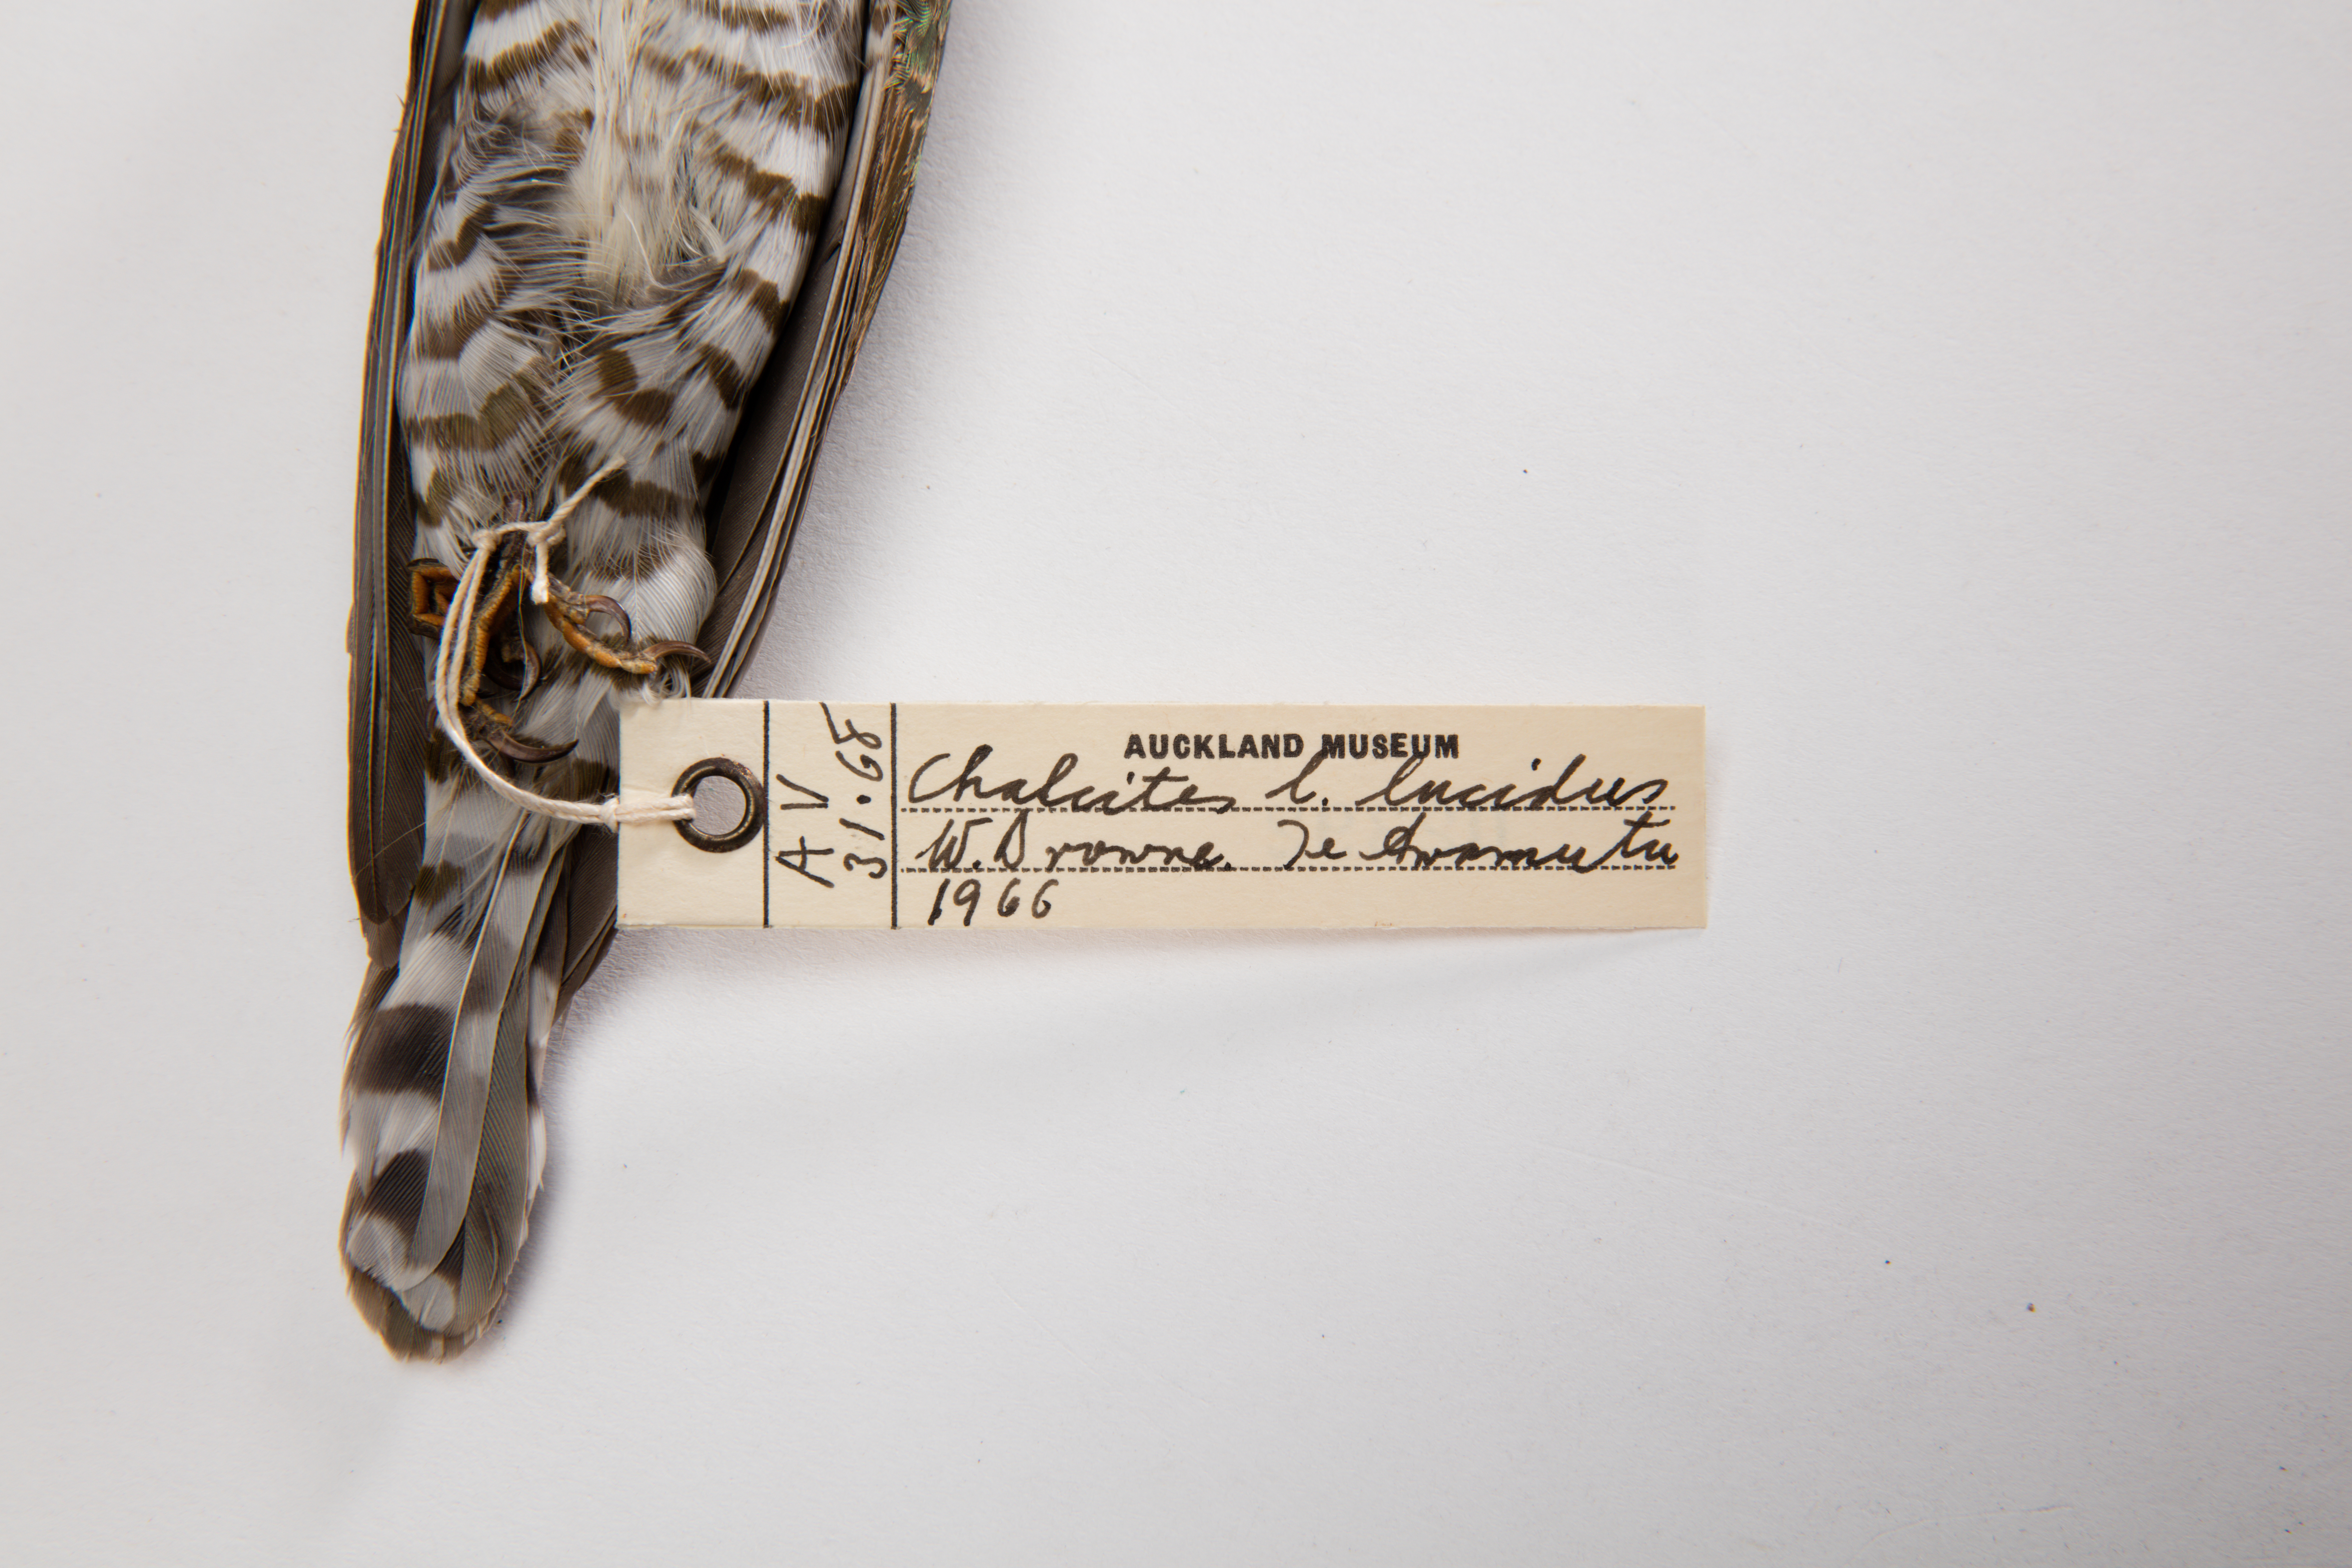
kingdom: Animalia
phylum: Chordata
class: Aves
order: Cuculiformes
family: Cuculidae
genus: Chrysococcyx
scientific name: Chrysococcyx lucidus
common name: Shining bronze cuckoo
